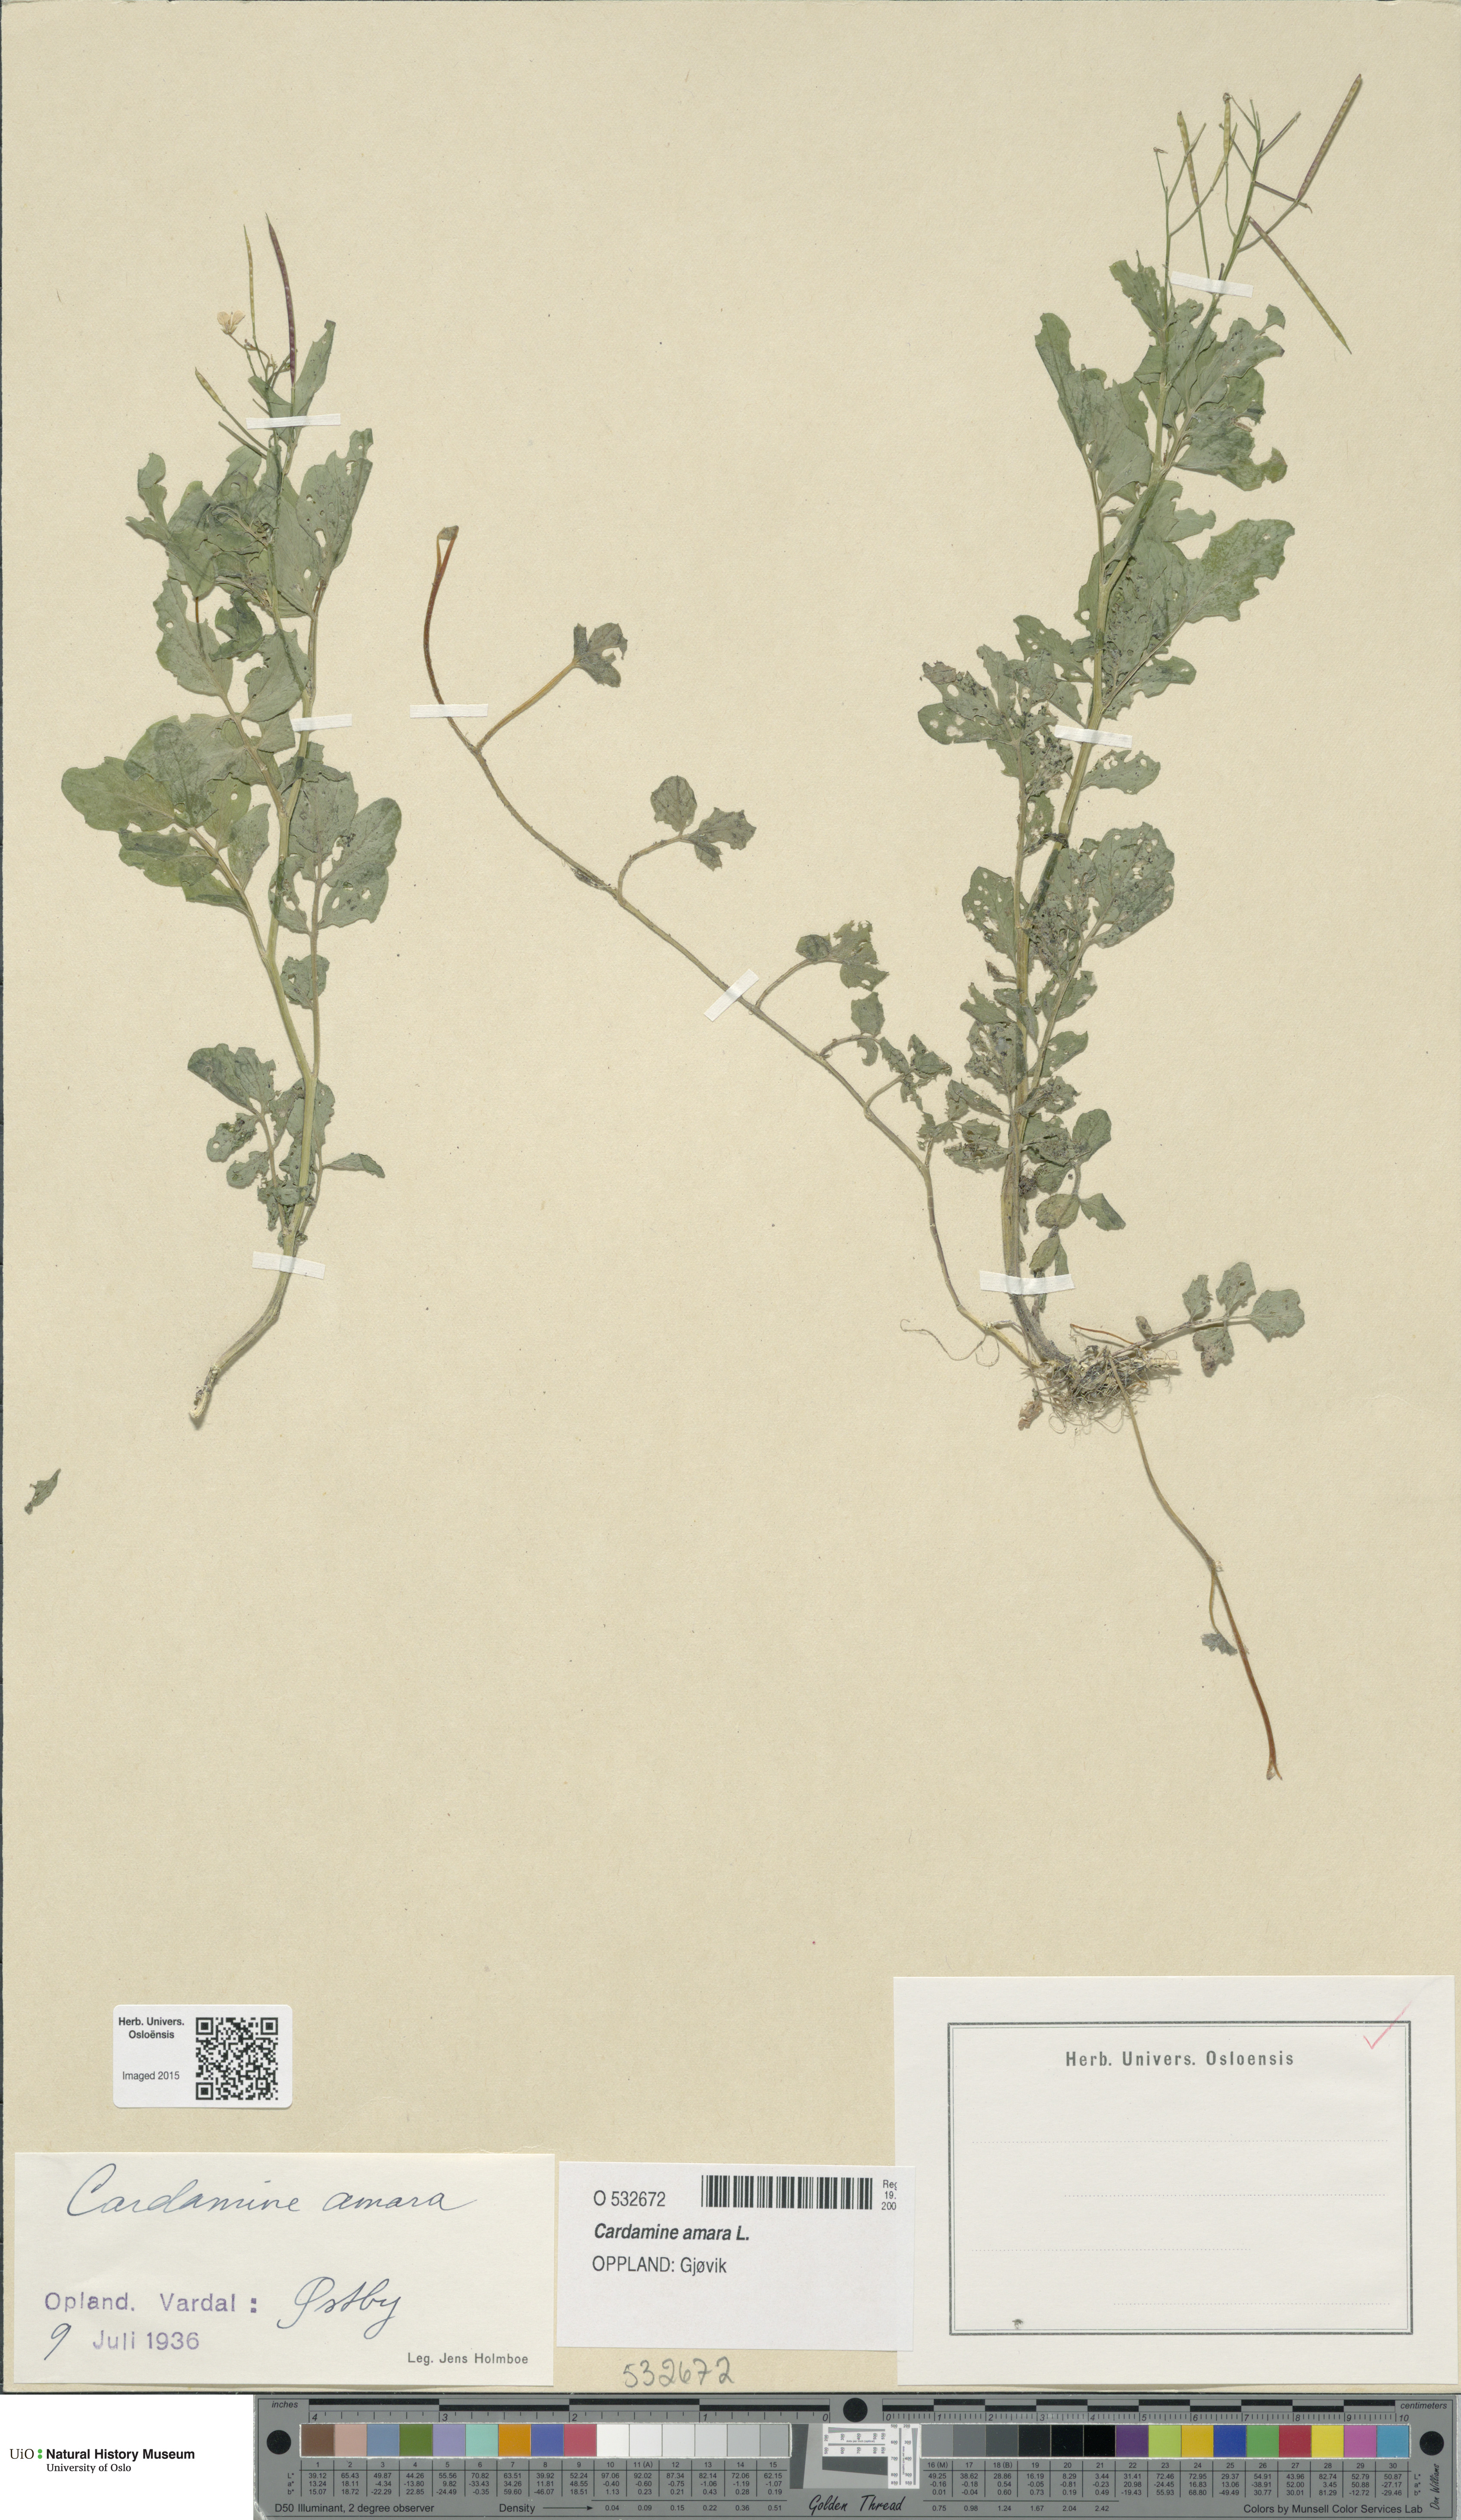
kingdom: Plantae
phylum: Tracheophyta
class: Magnoliopsida
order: Brassicales
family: Brassicaceae
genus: Cardamine
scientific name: Cardamine amara
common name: Large bitter-cress
